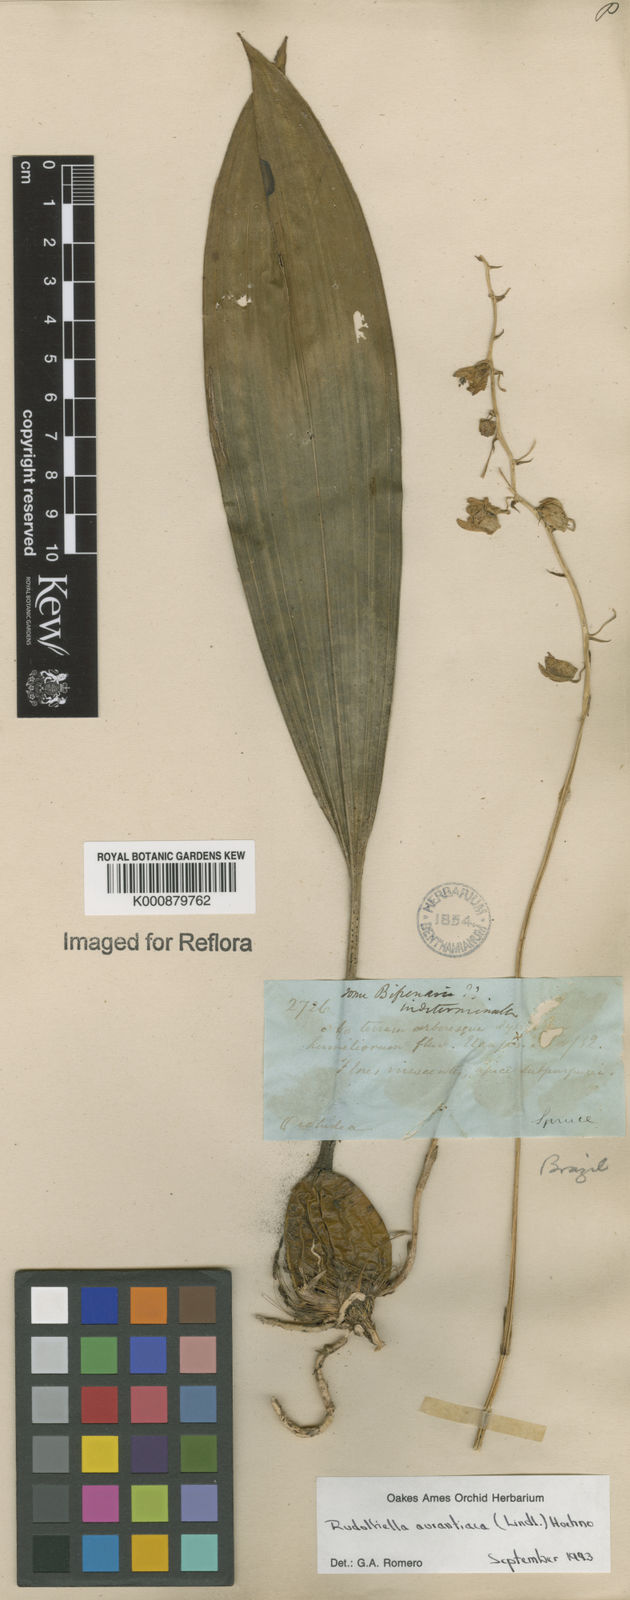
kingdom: Plantae
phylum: Tracheophyta
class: Liliopsida
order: Asparagales
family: Orchidaceae
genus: Rudolfiella
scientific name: Rudolfiella aurantiaca
